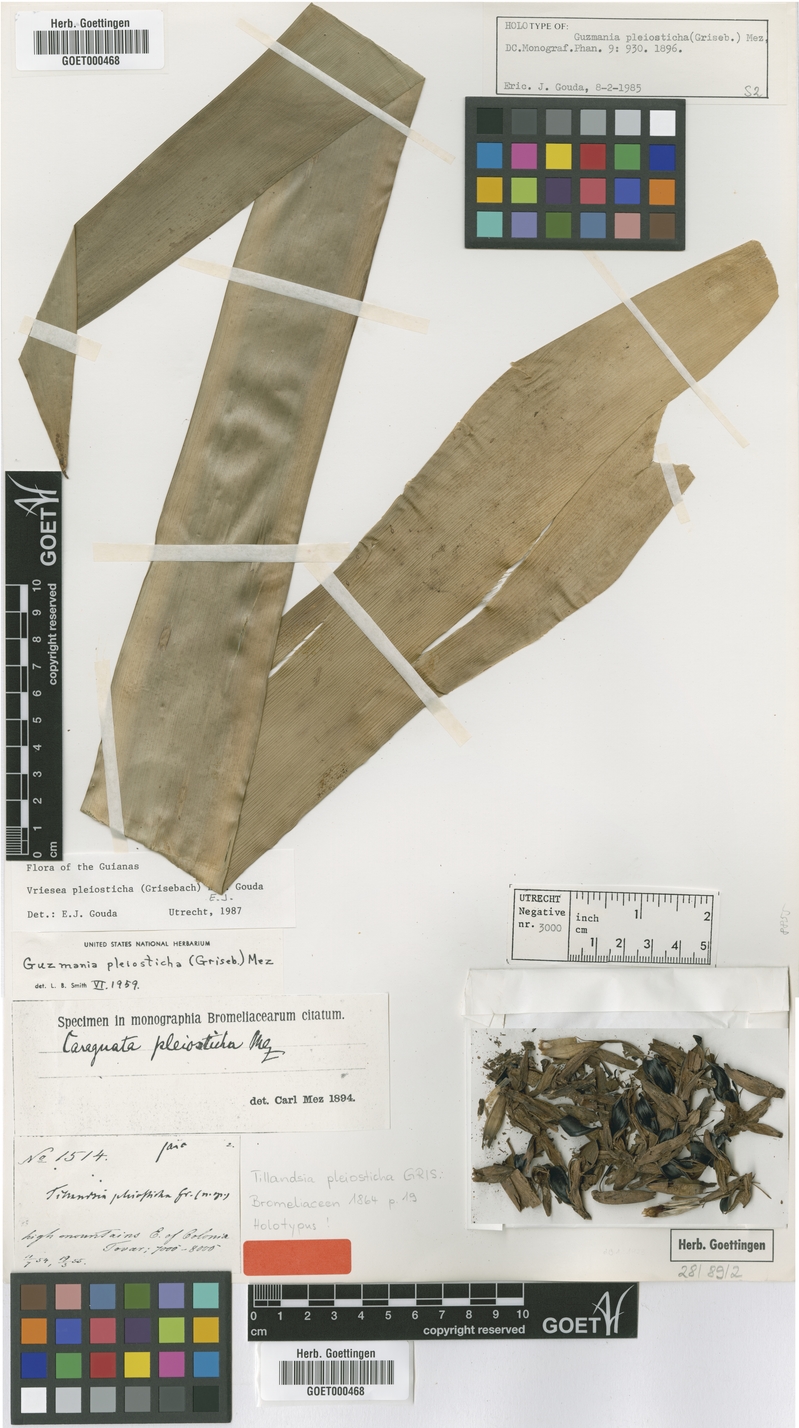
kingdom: Plantae
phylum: Tracheophyta
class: Liliopsida
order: Poales
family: Bromeliaceae
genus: Vriesea
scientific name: Vriesea pleiosticha
